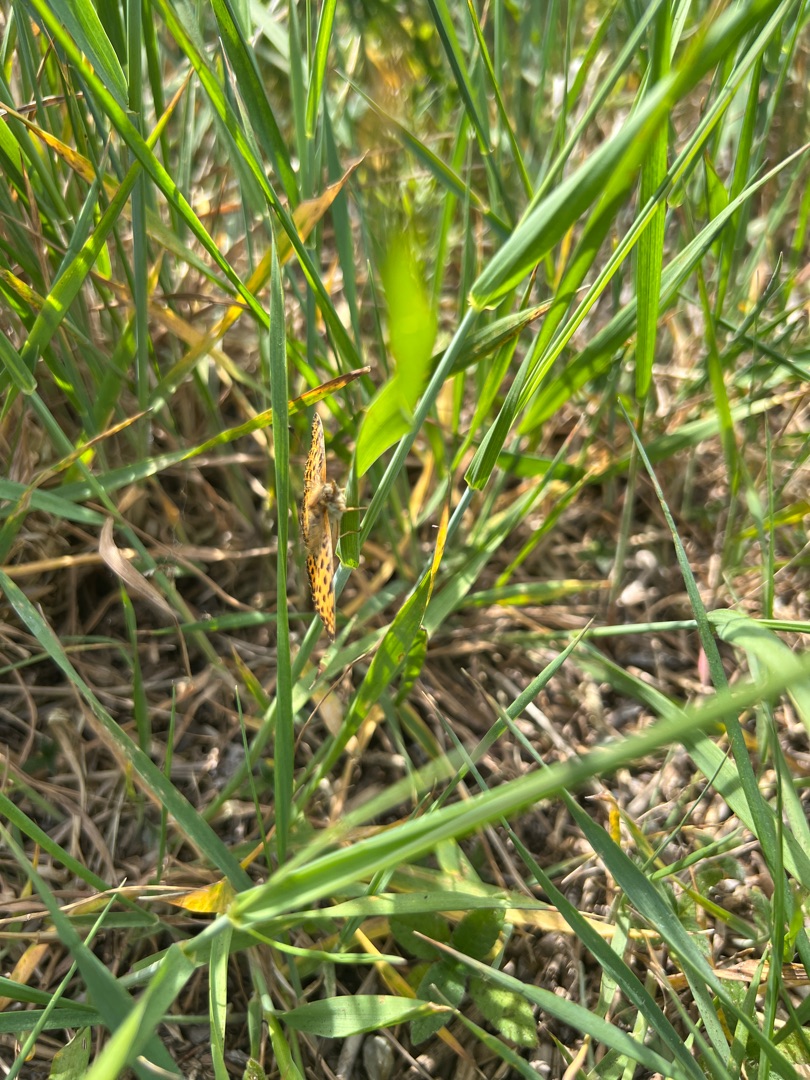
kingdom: Animalia
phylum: Arthropoda
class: Insecta
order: Lepidoptera
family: Nymphalidae
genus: Issoria
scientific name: Issoria lathonia
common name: Storplettet perlemorsommerfugl
